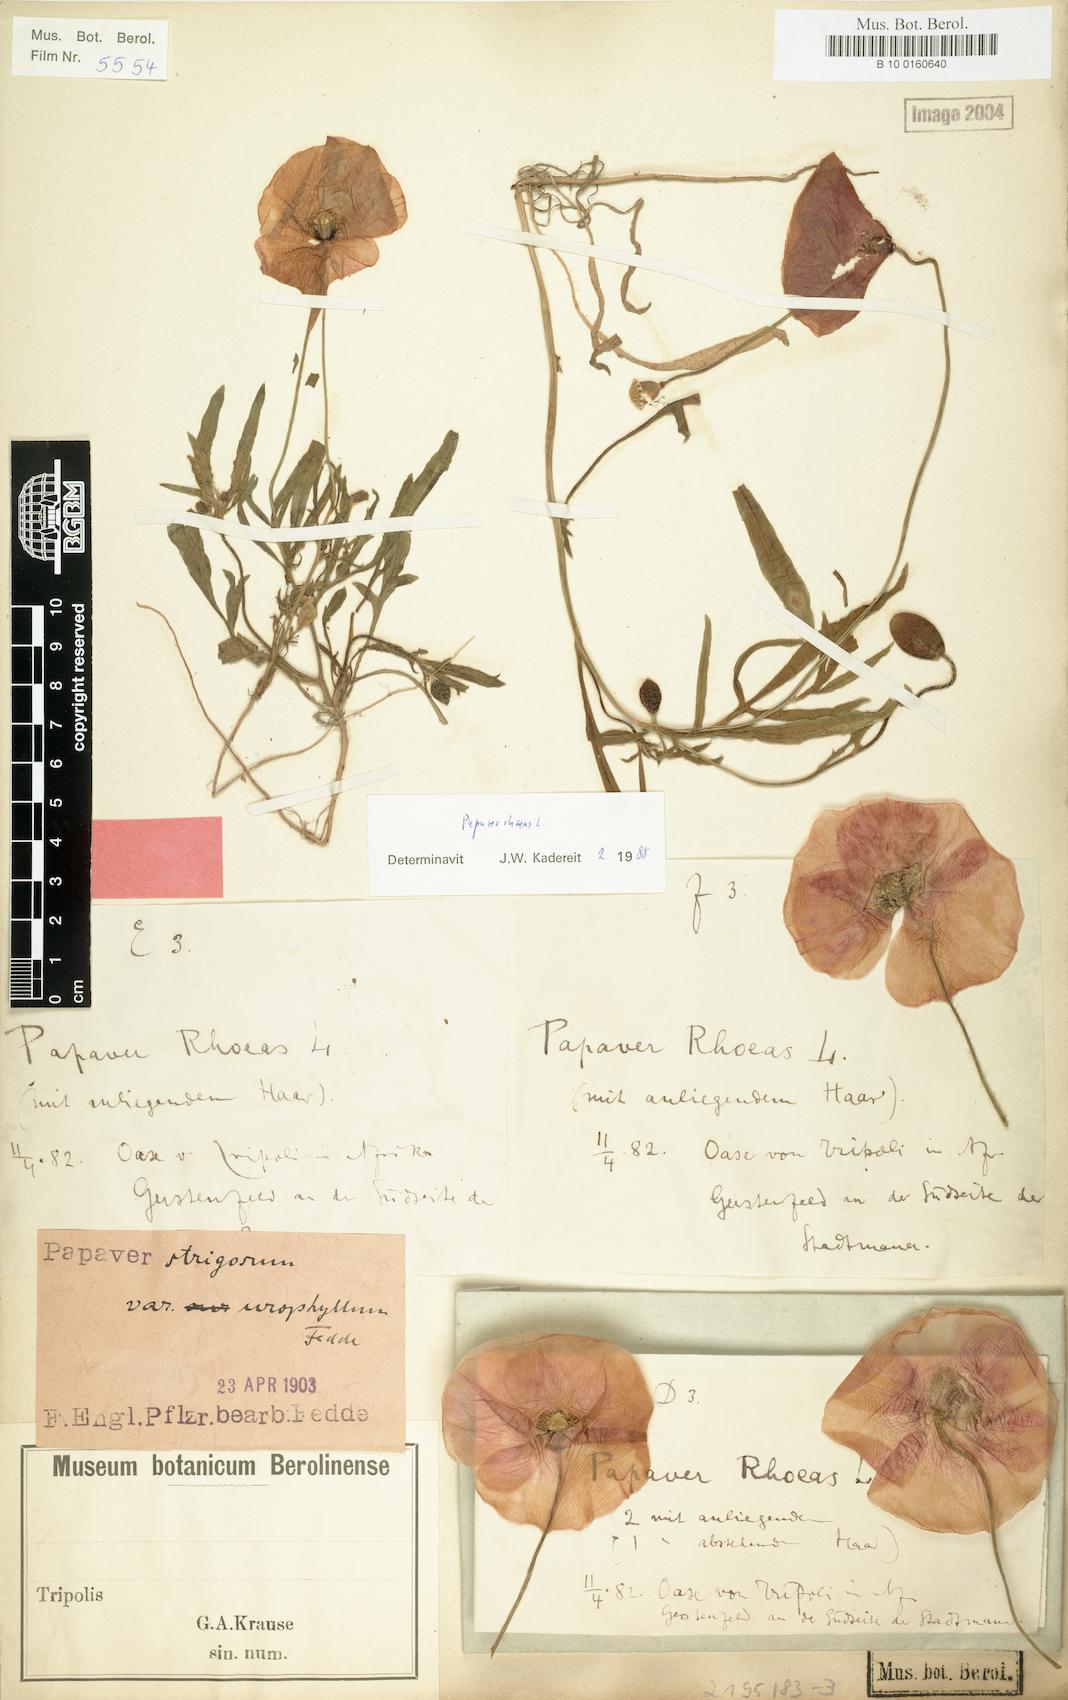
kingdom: Plantae
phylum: Tracheophyta
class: Magnoliopsida
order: Ranunculales
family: Papaveraceae
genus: Papaver
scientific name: Papaver rhoeas
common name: Corn poppy
